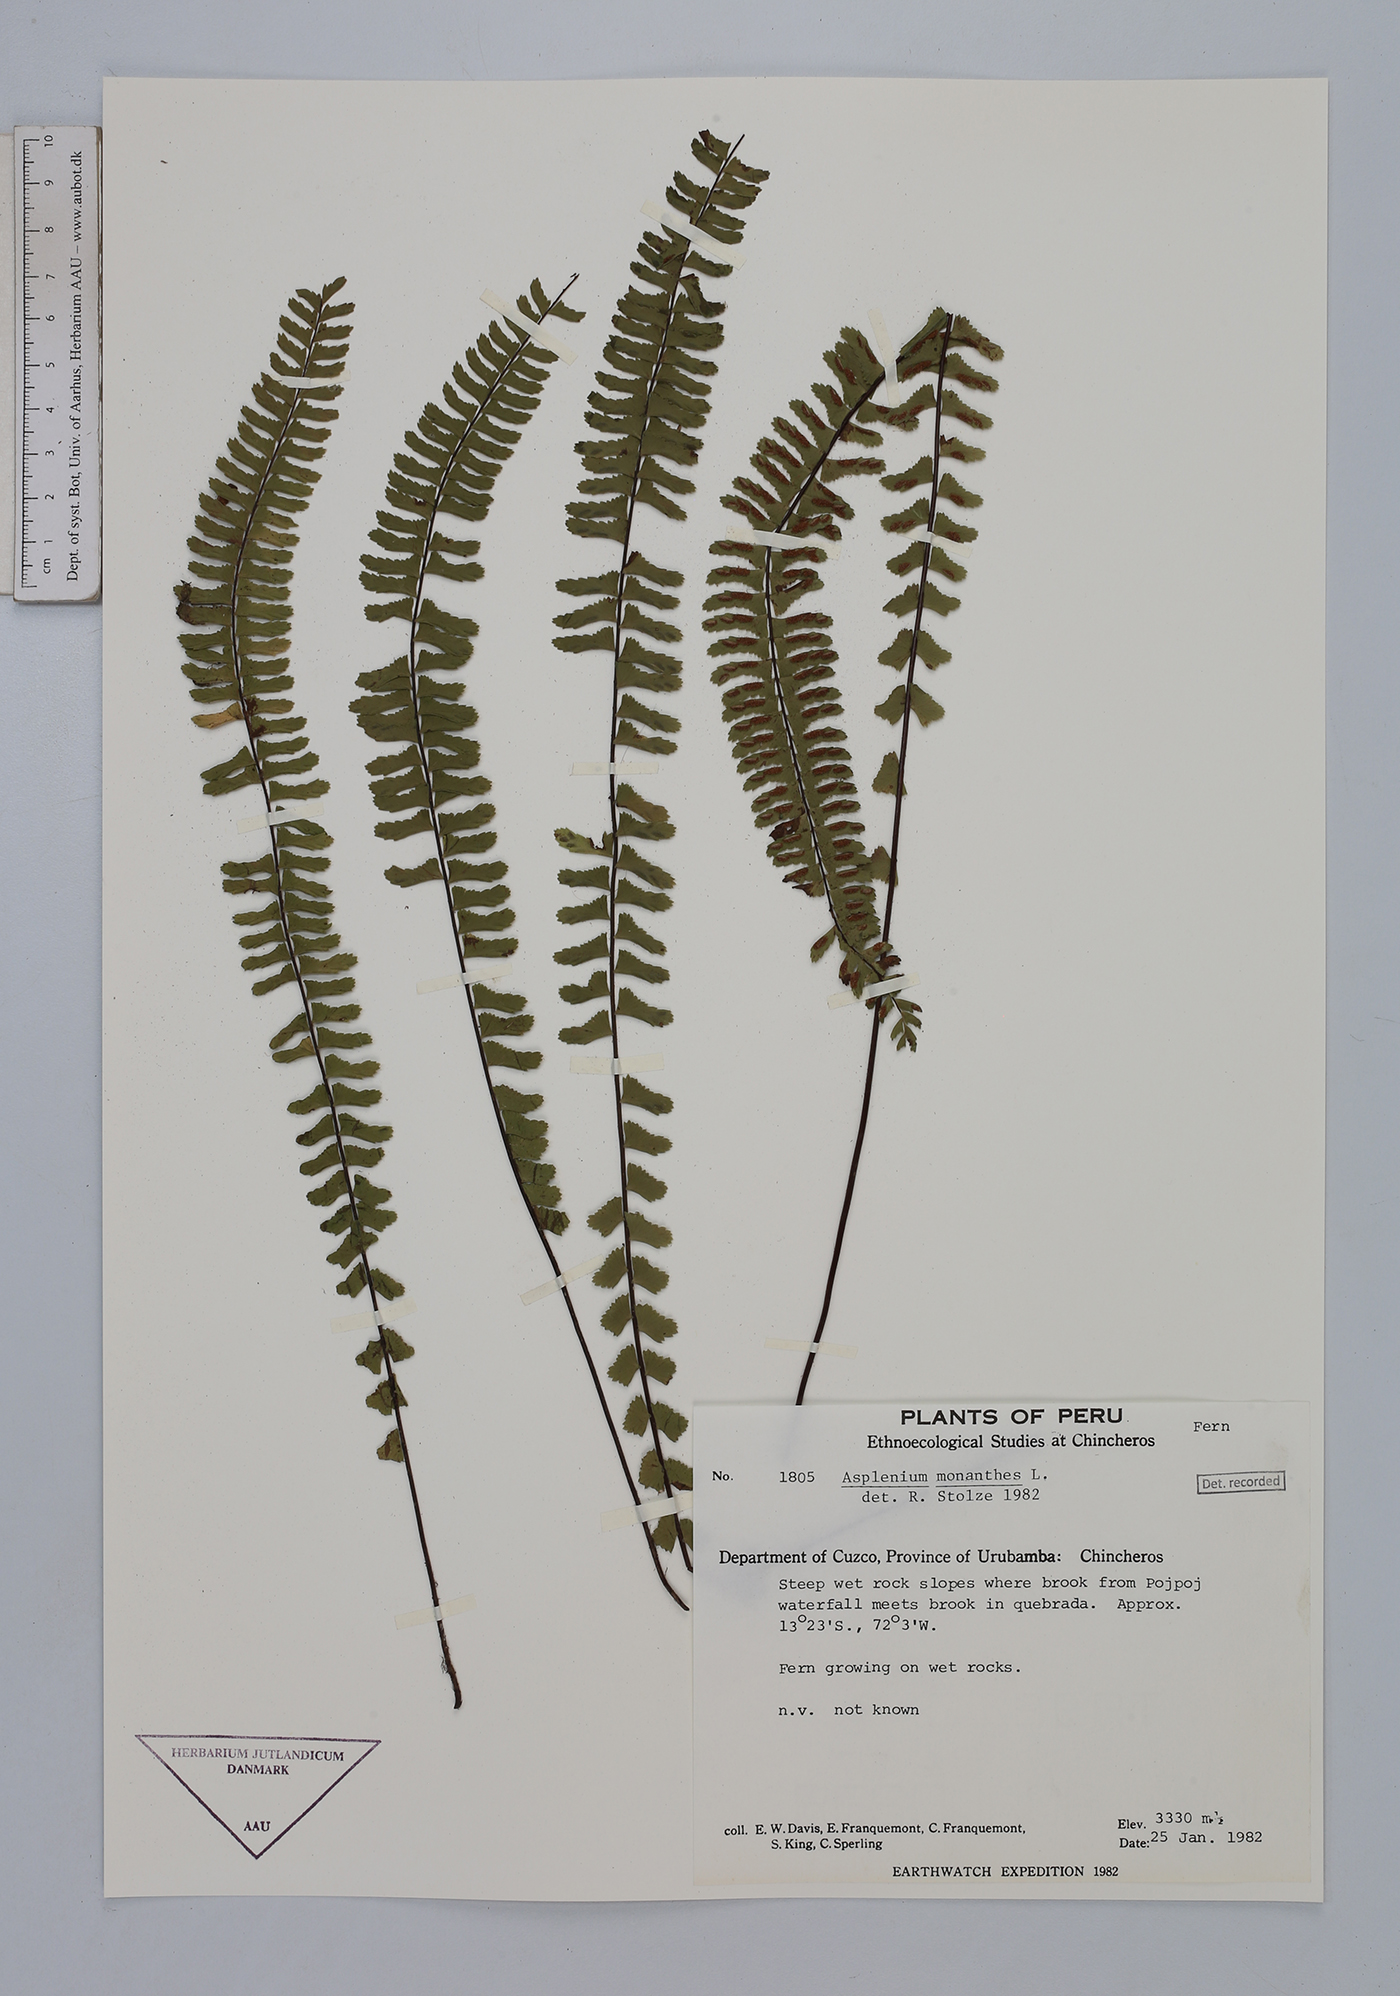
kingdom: Plantae
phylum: Tracheophyta
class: Polypodiopsida
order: Polypodiales
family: Aspleniaceae
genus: Asplenium
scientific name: Asplenium monanthes
